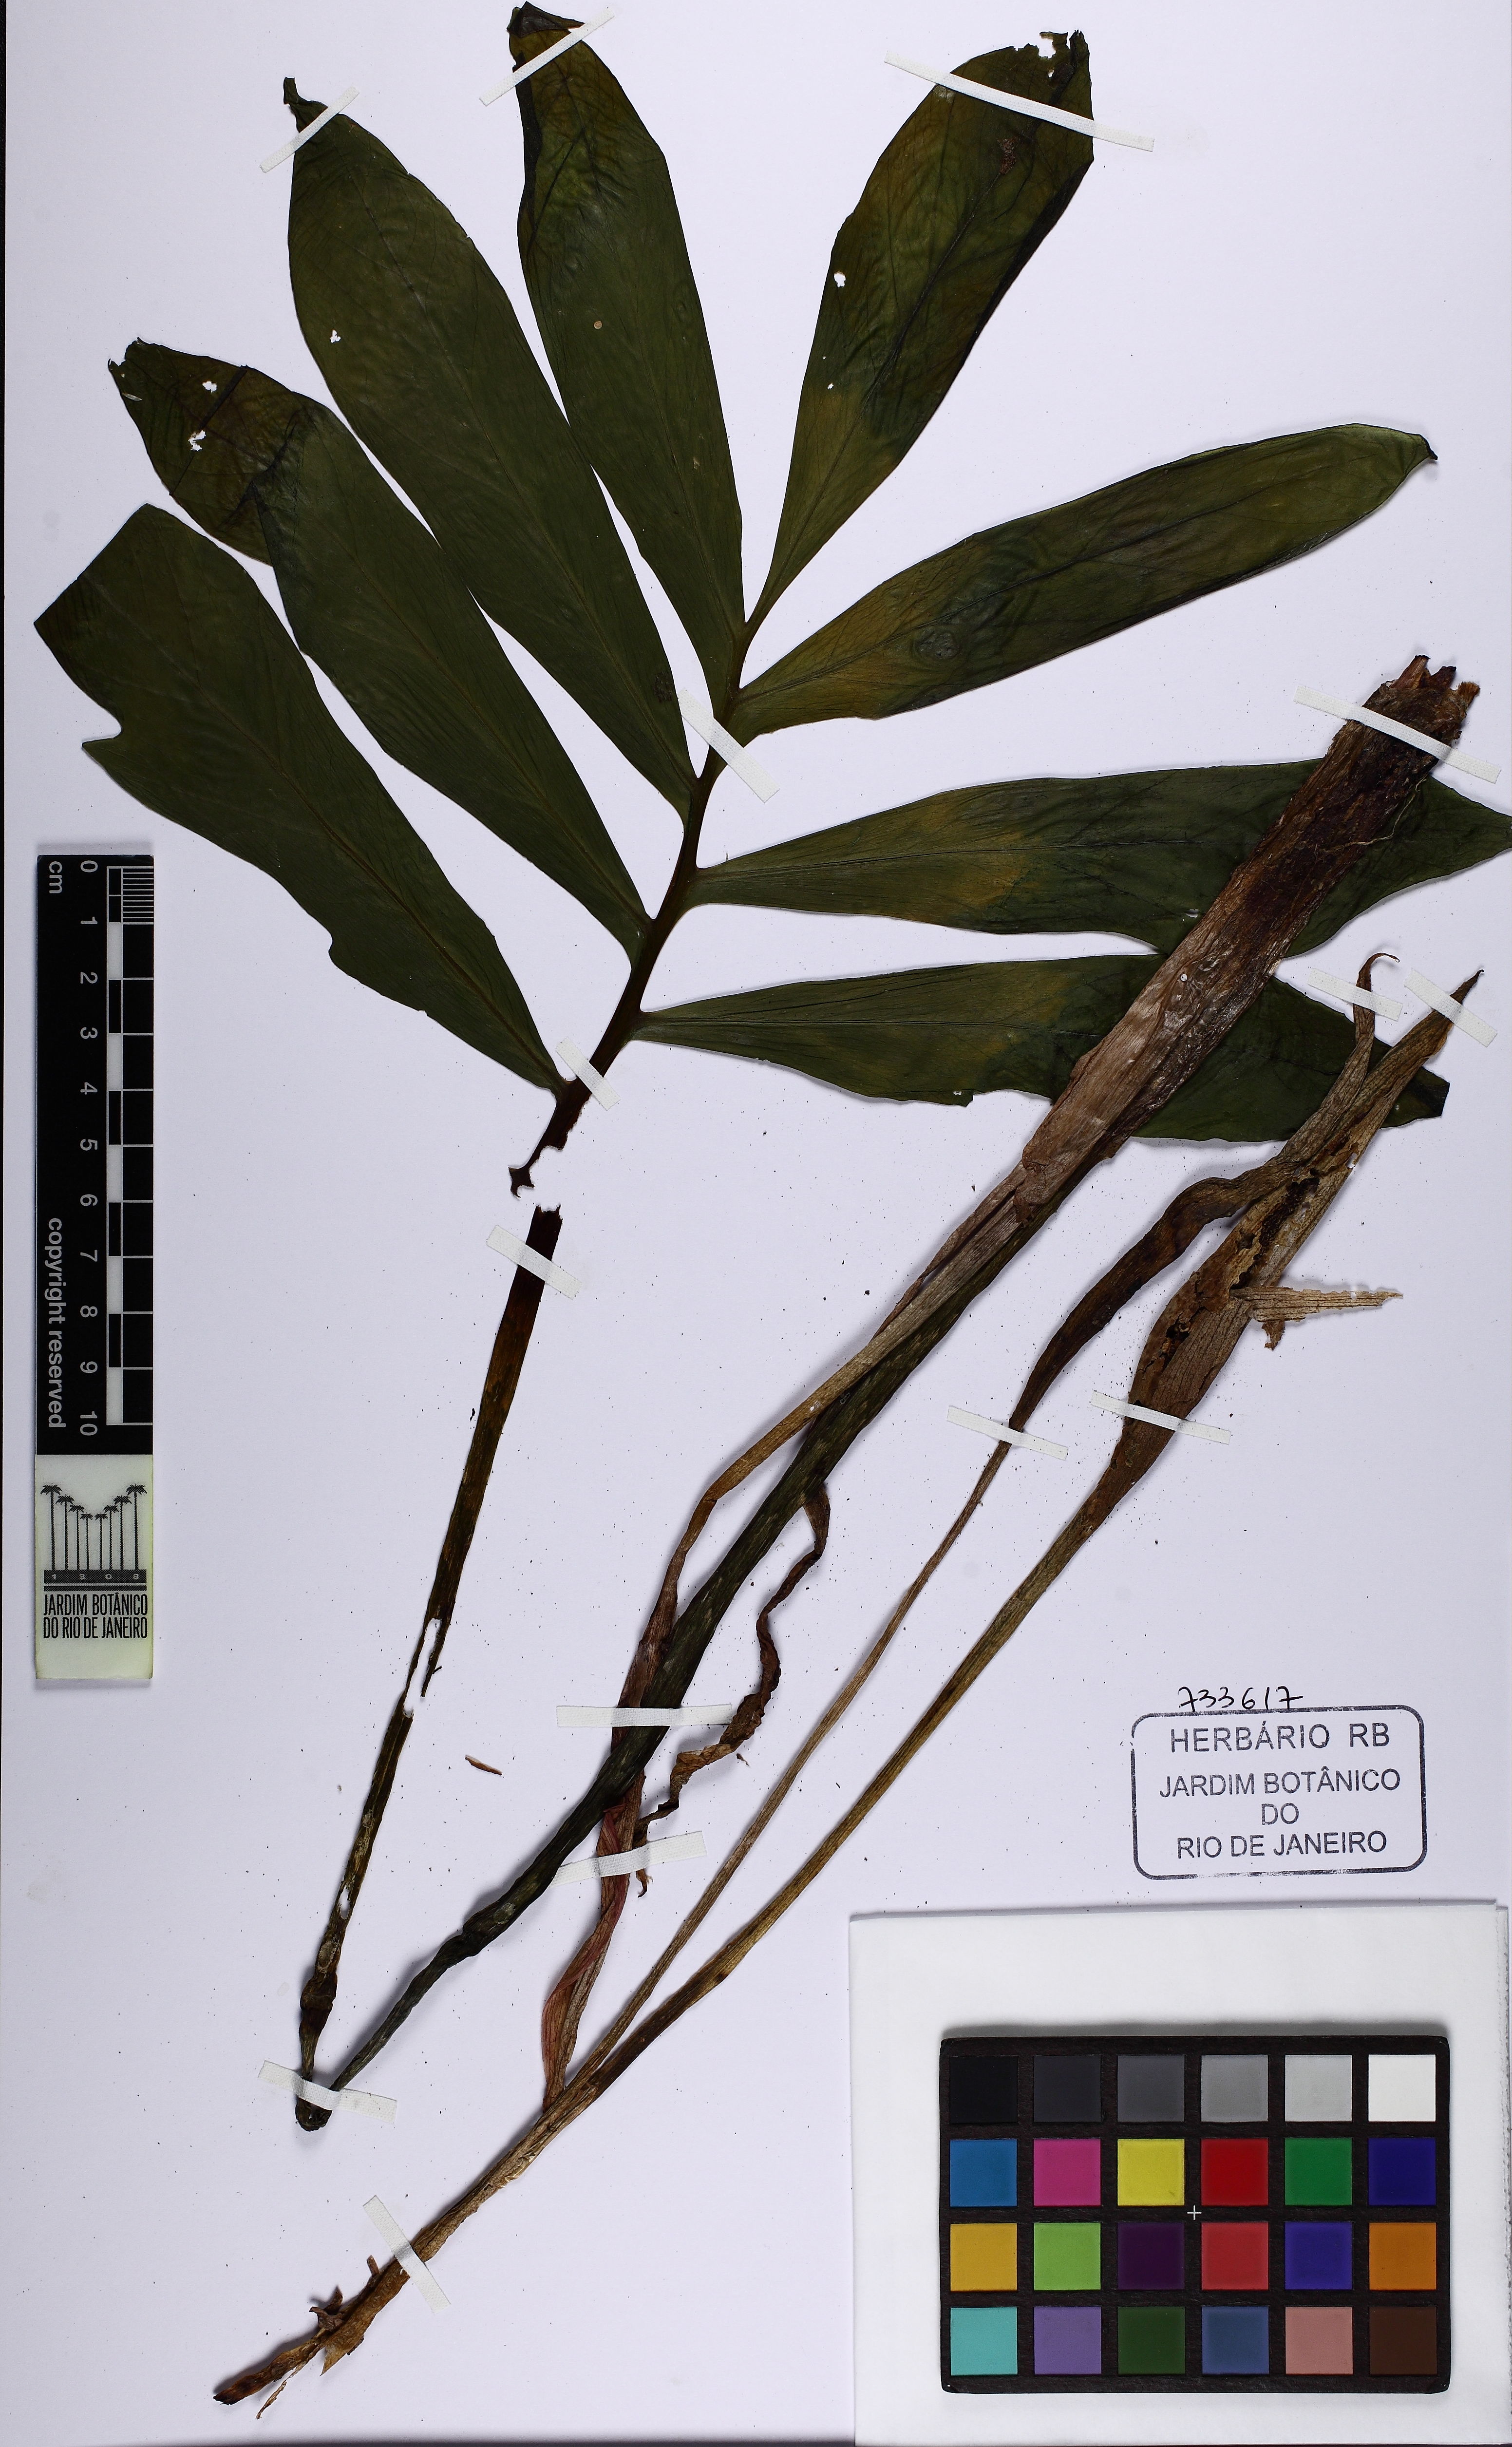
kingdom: Plantae
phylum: Tracheophyta
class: Liliopsida
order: Alismatales
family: Araceae
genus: Asterostigma
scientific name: Asterostigma
